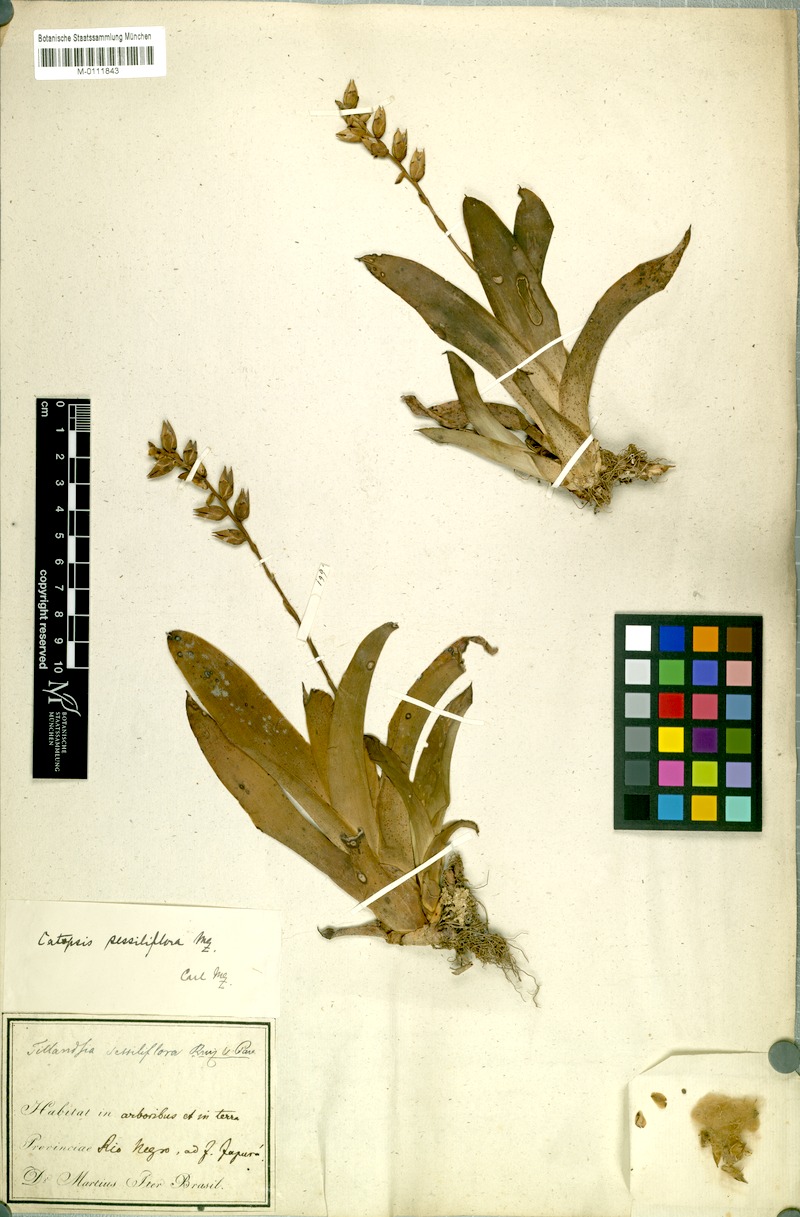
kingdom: Plantae
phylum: Tracheophyta
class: Liliopsida
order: Poales
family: Bromeliaceae
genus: Catopsis
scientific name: Catopsis sessiliflora
